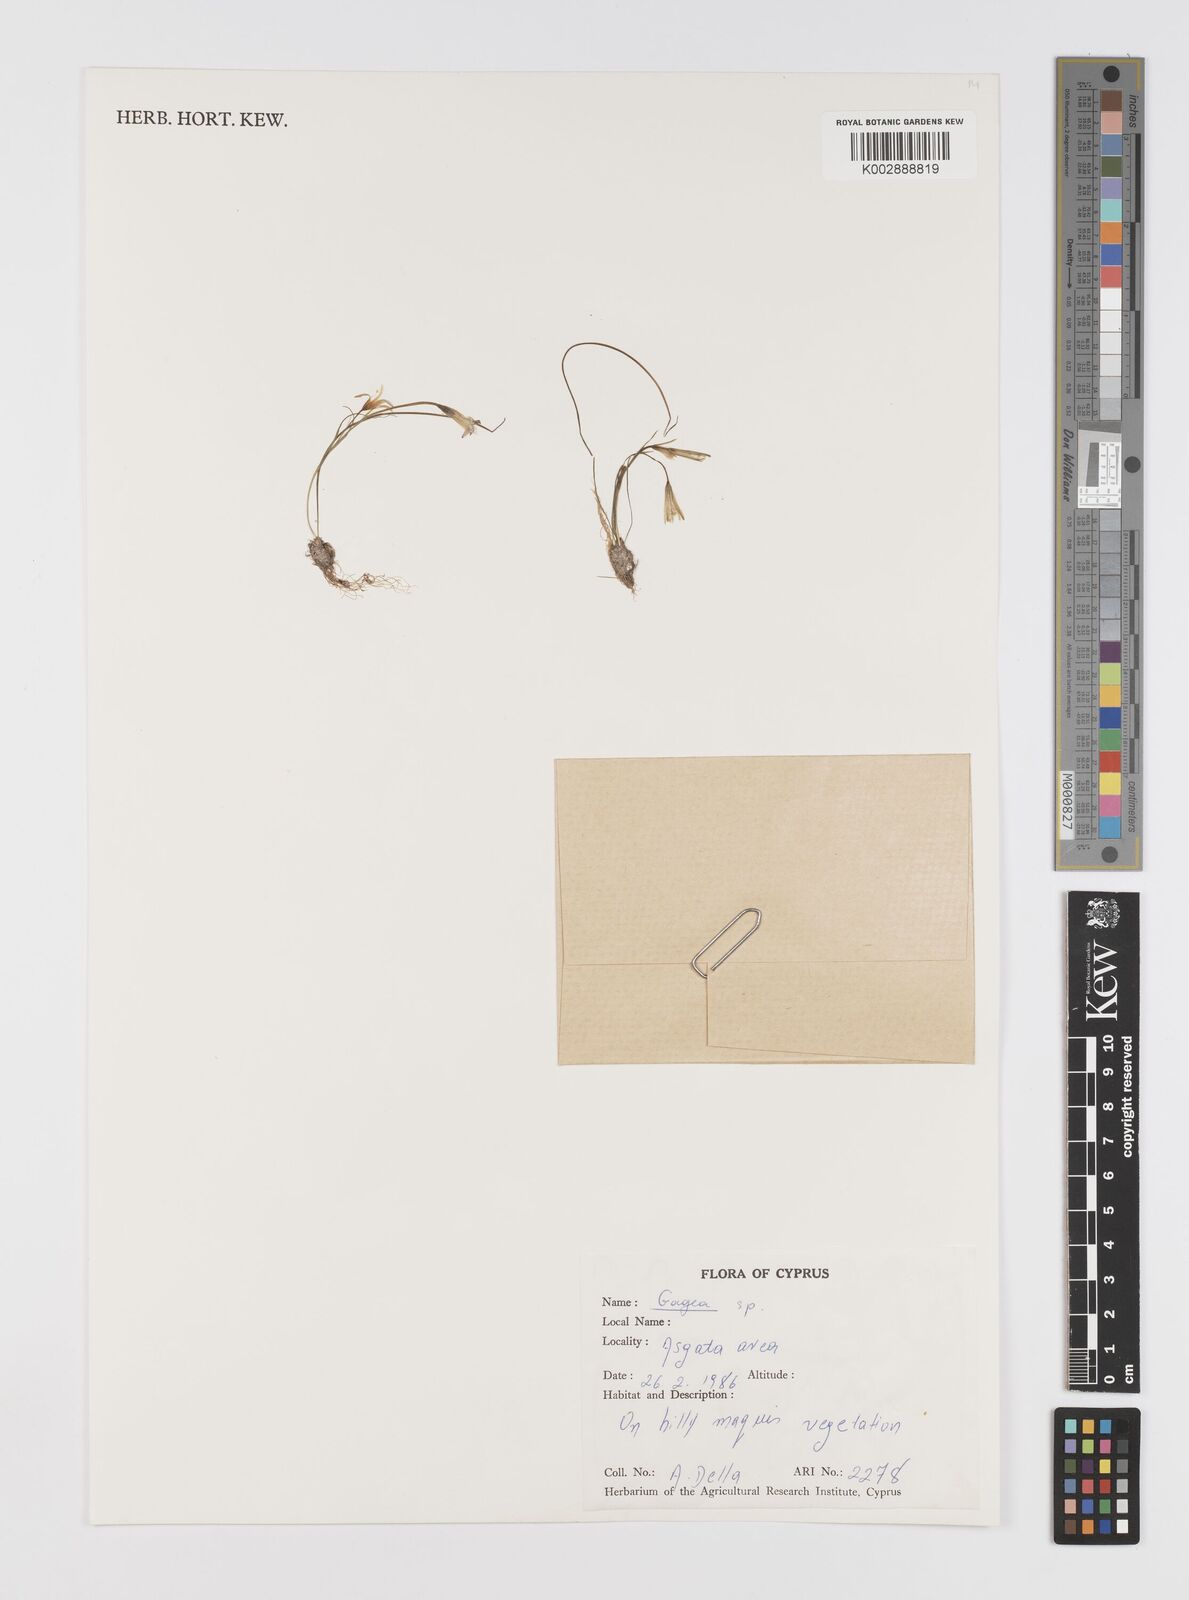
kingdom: Plantae
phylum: Tracheophyta
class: Liliopsida
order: Liliales
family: Liliaceae
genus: Gagea
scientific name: Gagea
